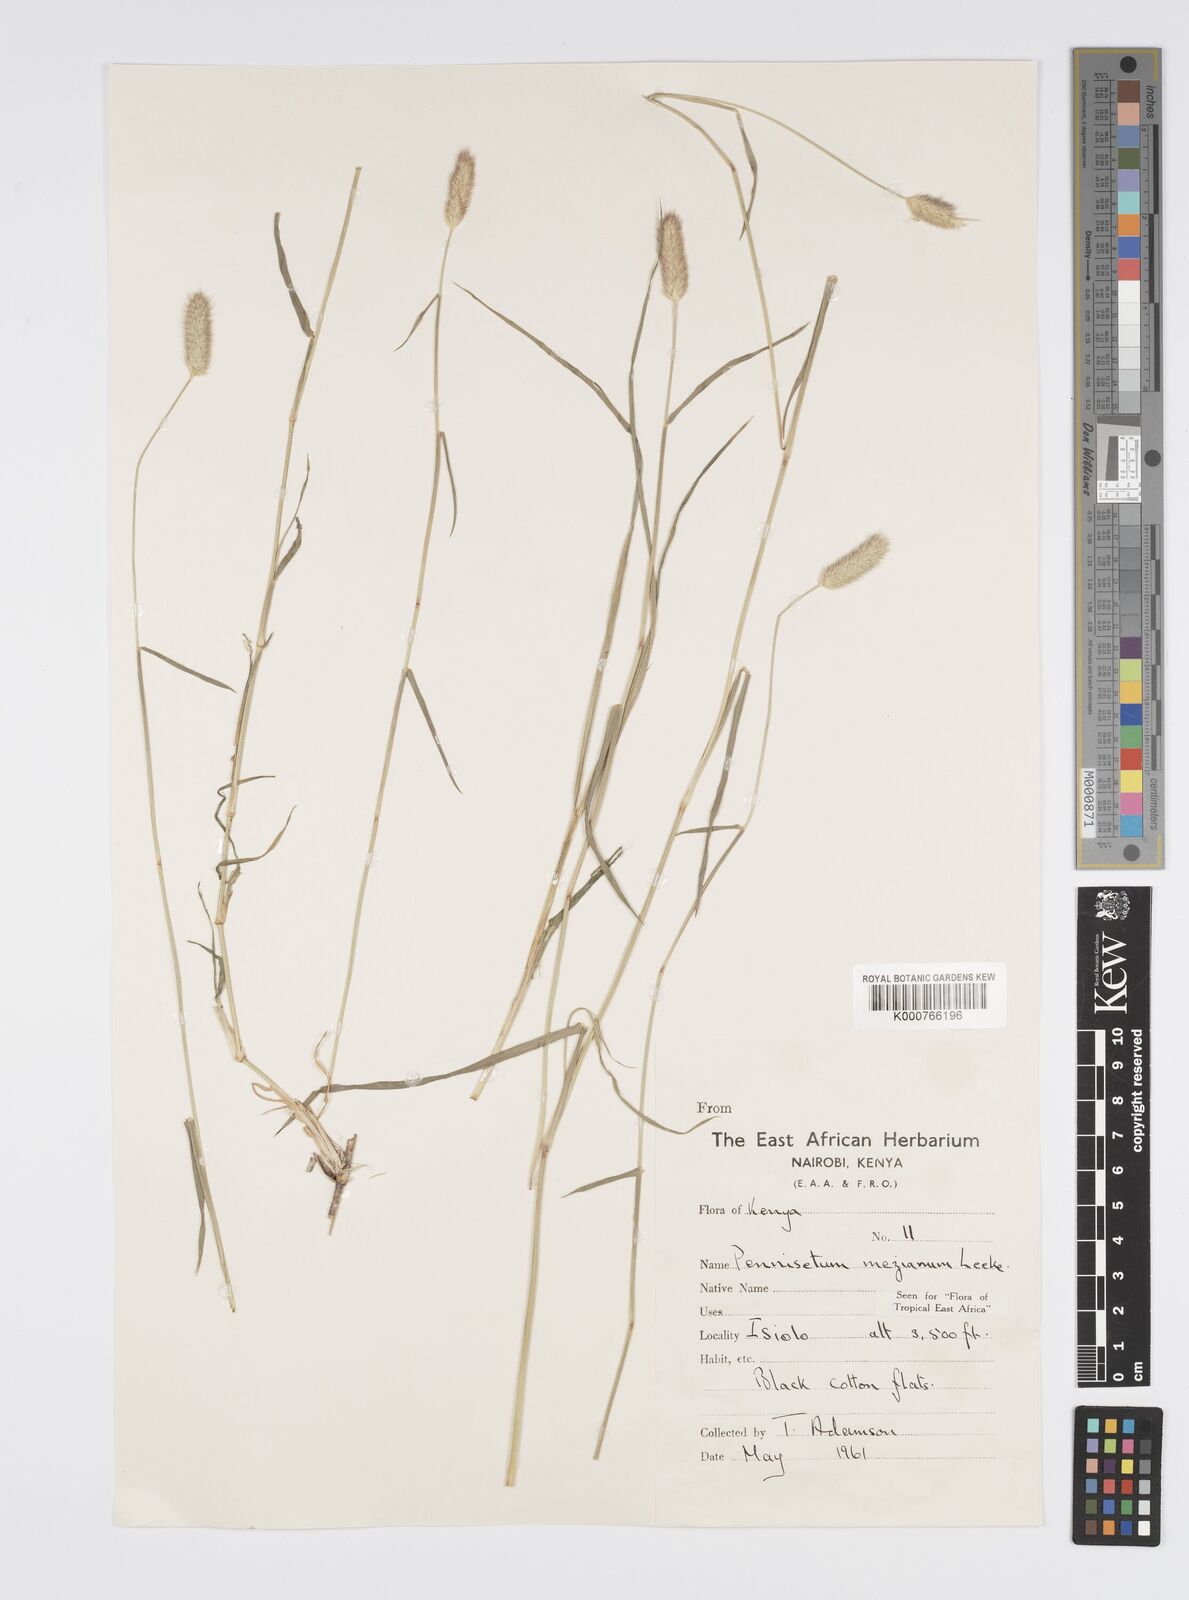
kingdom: Plantae
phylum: Tracheophyta
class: Liliopsida
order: Poales
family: Poaceae
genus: Cenchrus
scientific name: Cenchrus mezianus
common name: Bamboo grass
